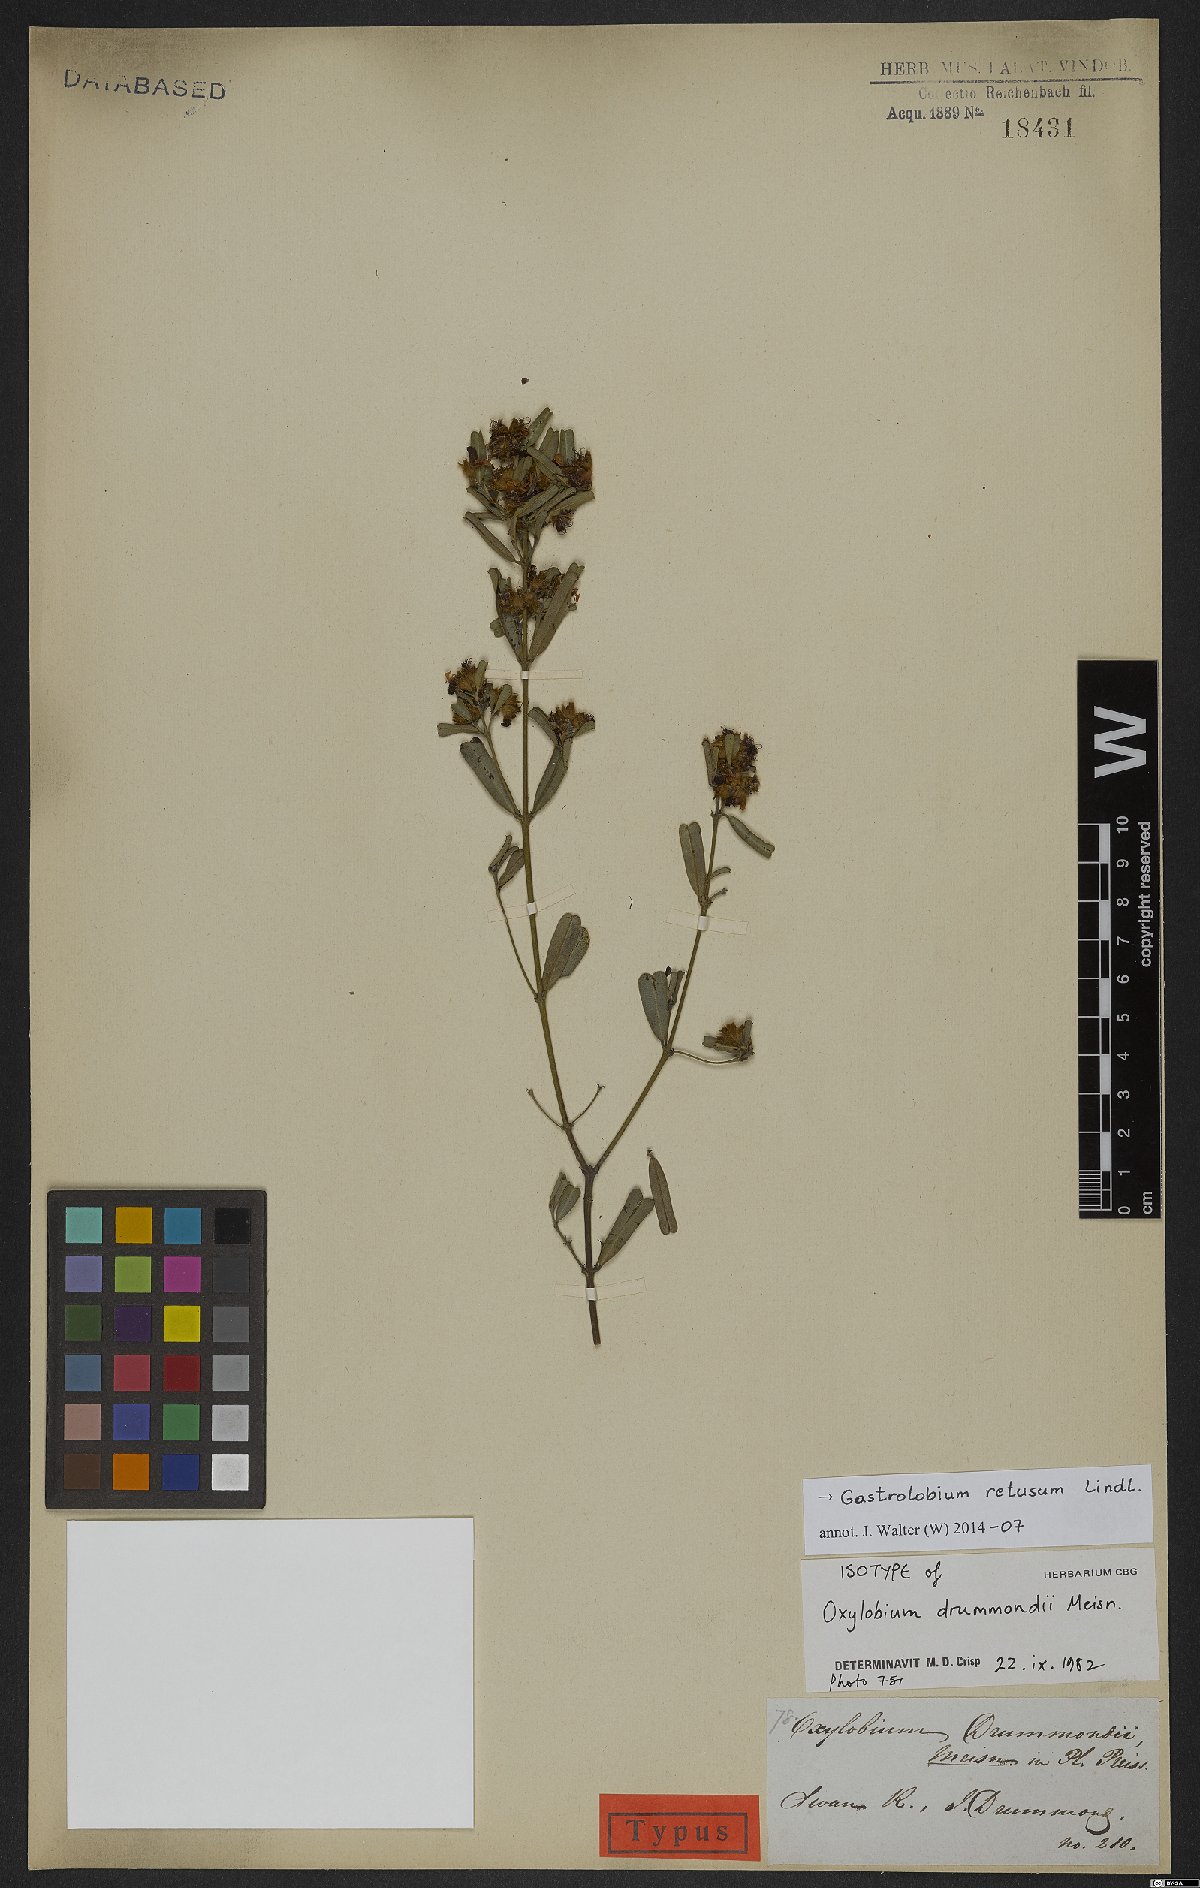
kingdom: Plantae
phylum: Tracheophyta
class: Magnoliopsida
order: Fabales
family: Fabaceae
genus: Gastrolobium
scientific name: Gastrolobium retusum
